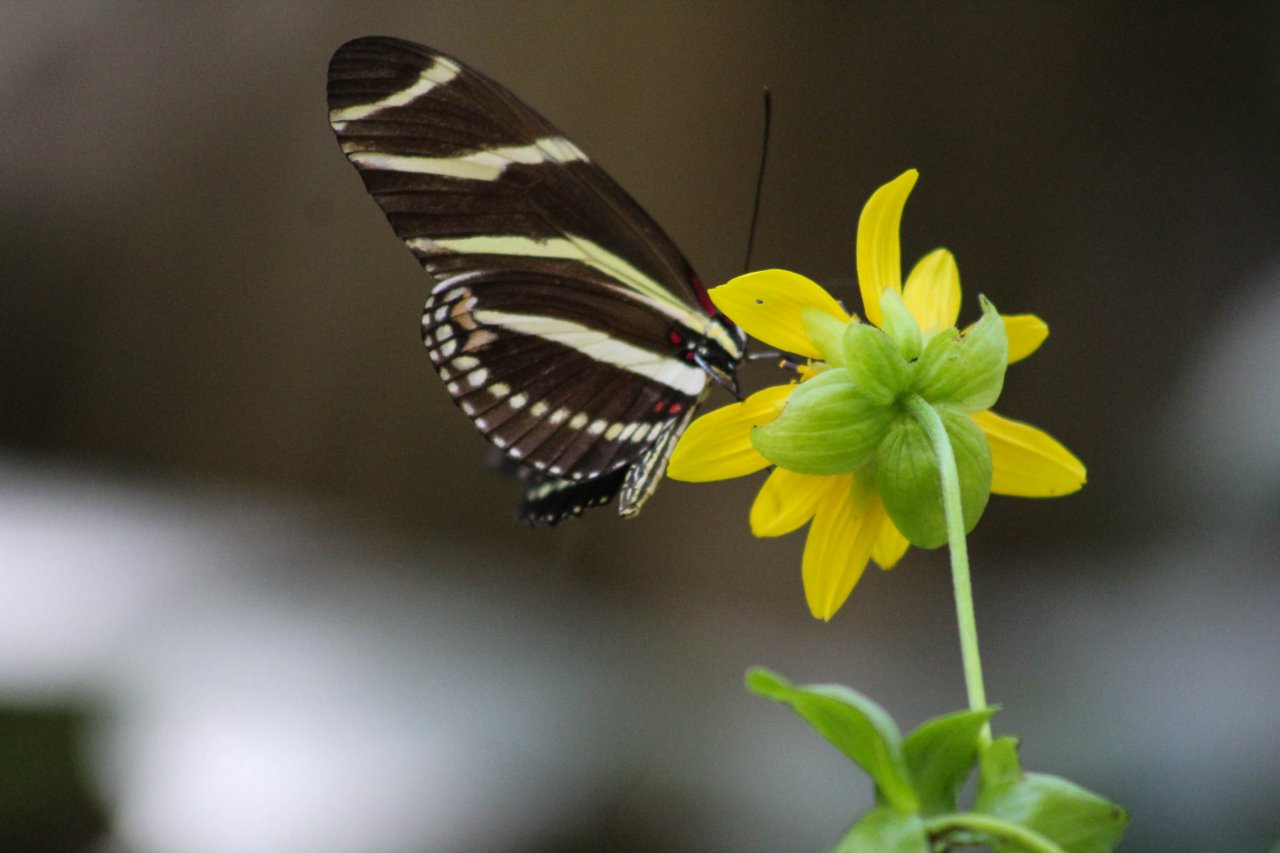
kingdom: Animalia
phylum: Arthropoda
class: Insecta
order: Lepidoptera
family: Nymphalidae
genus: Heliconius
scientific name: Heliconius charithonia
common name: Zebra Longwing
